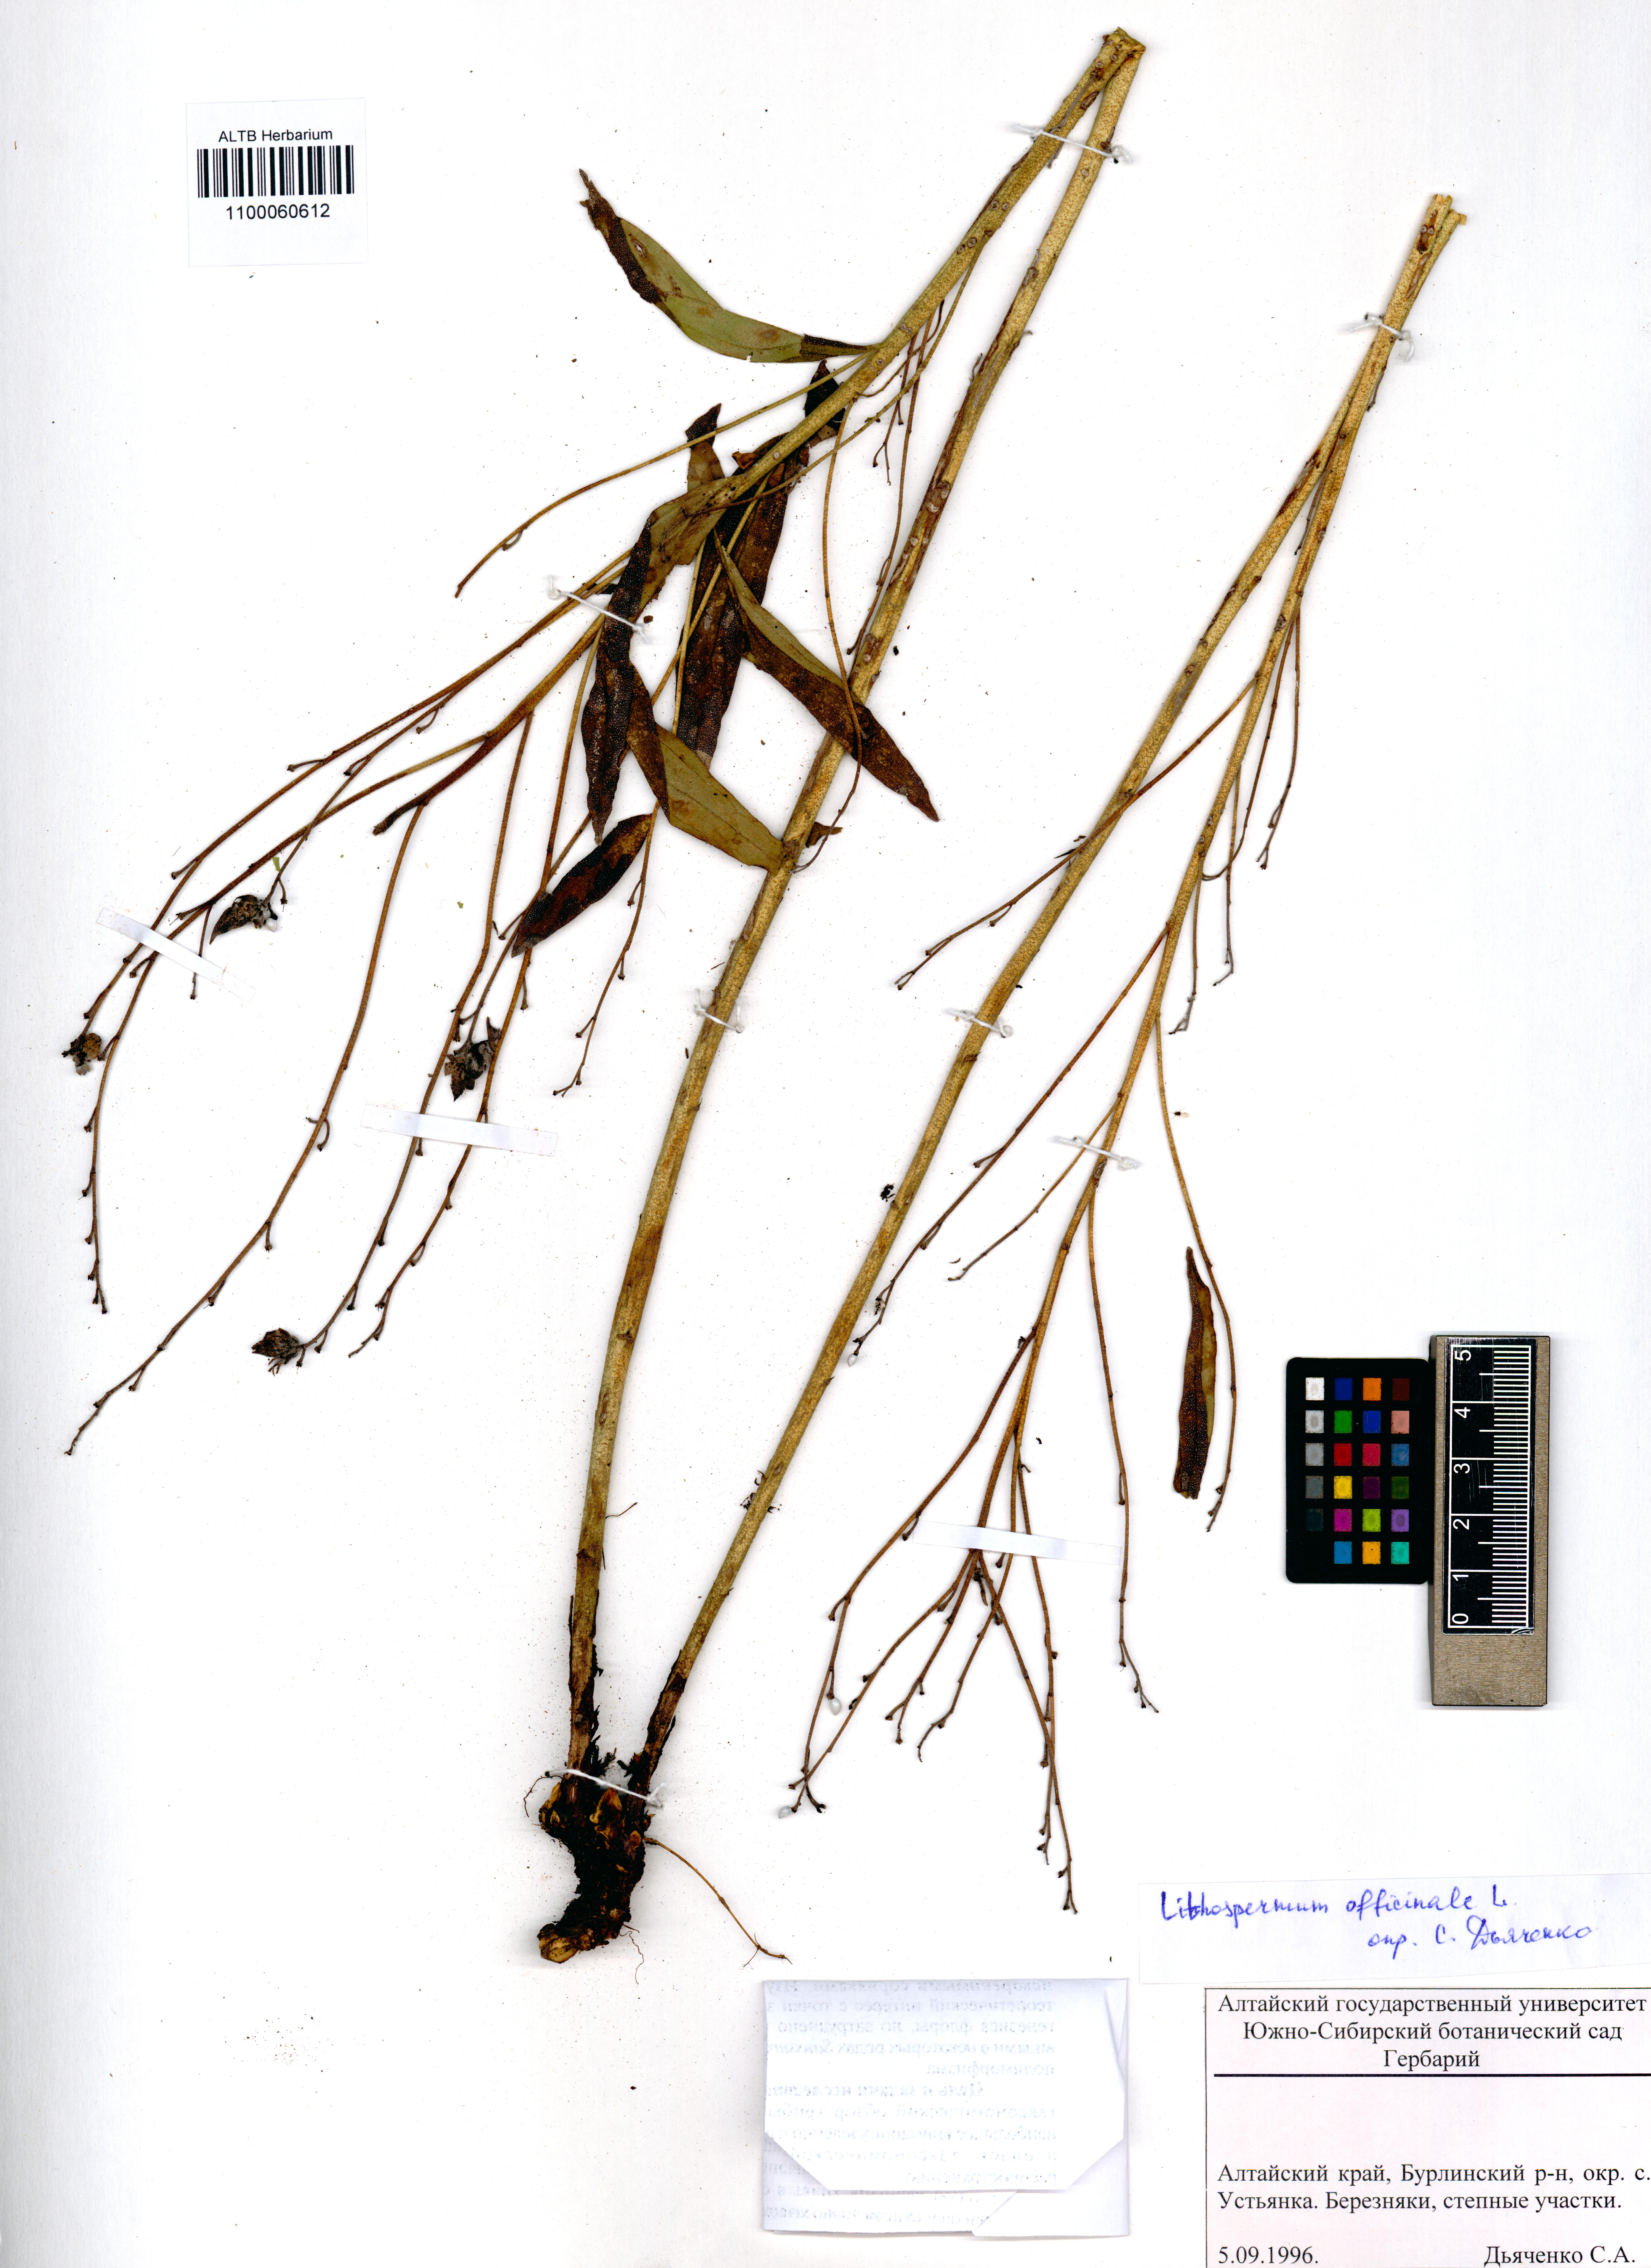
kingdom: Plantae
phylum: Tracheophyta
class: Magnoliopsida
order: Boraginales
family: Boraginaceae
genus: Lithospermum
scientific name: Lithospermum officinale
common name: Common gromwell
